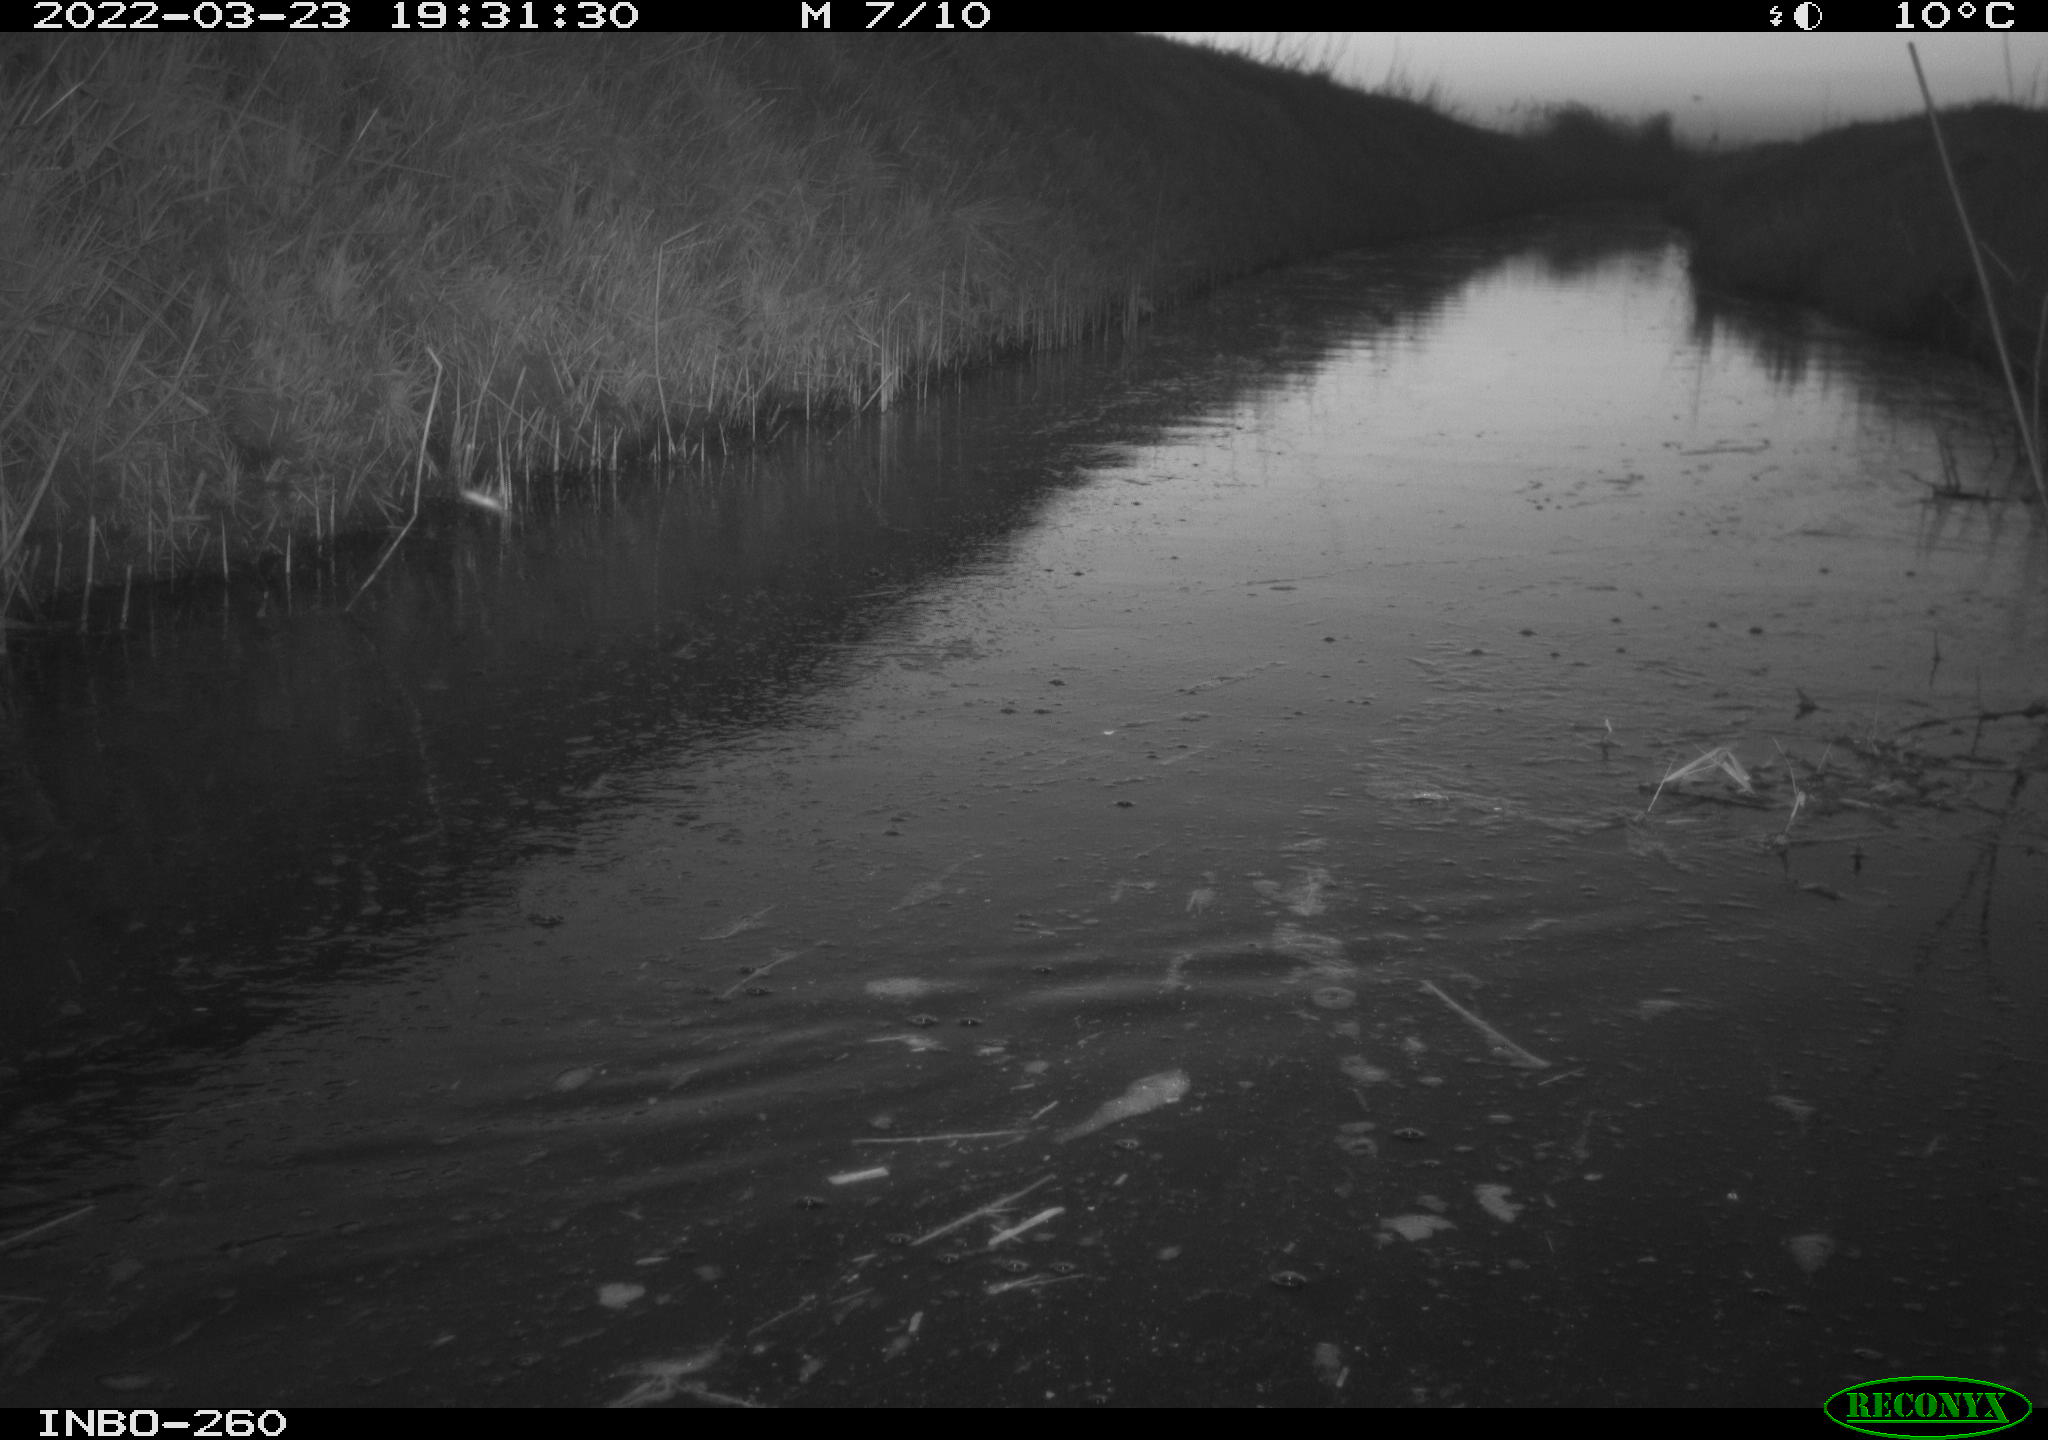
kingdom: Animalia
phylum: Chordata
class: Aves
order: Gruiformes
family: Rallidae
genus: Fulica
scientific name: Fulica atra
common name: Eurasian coot
